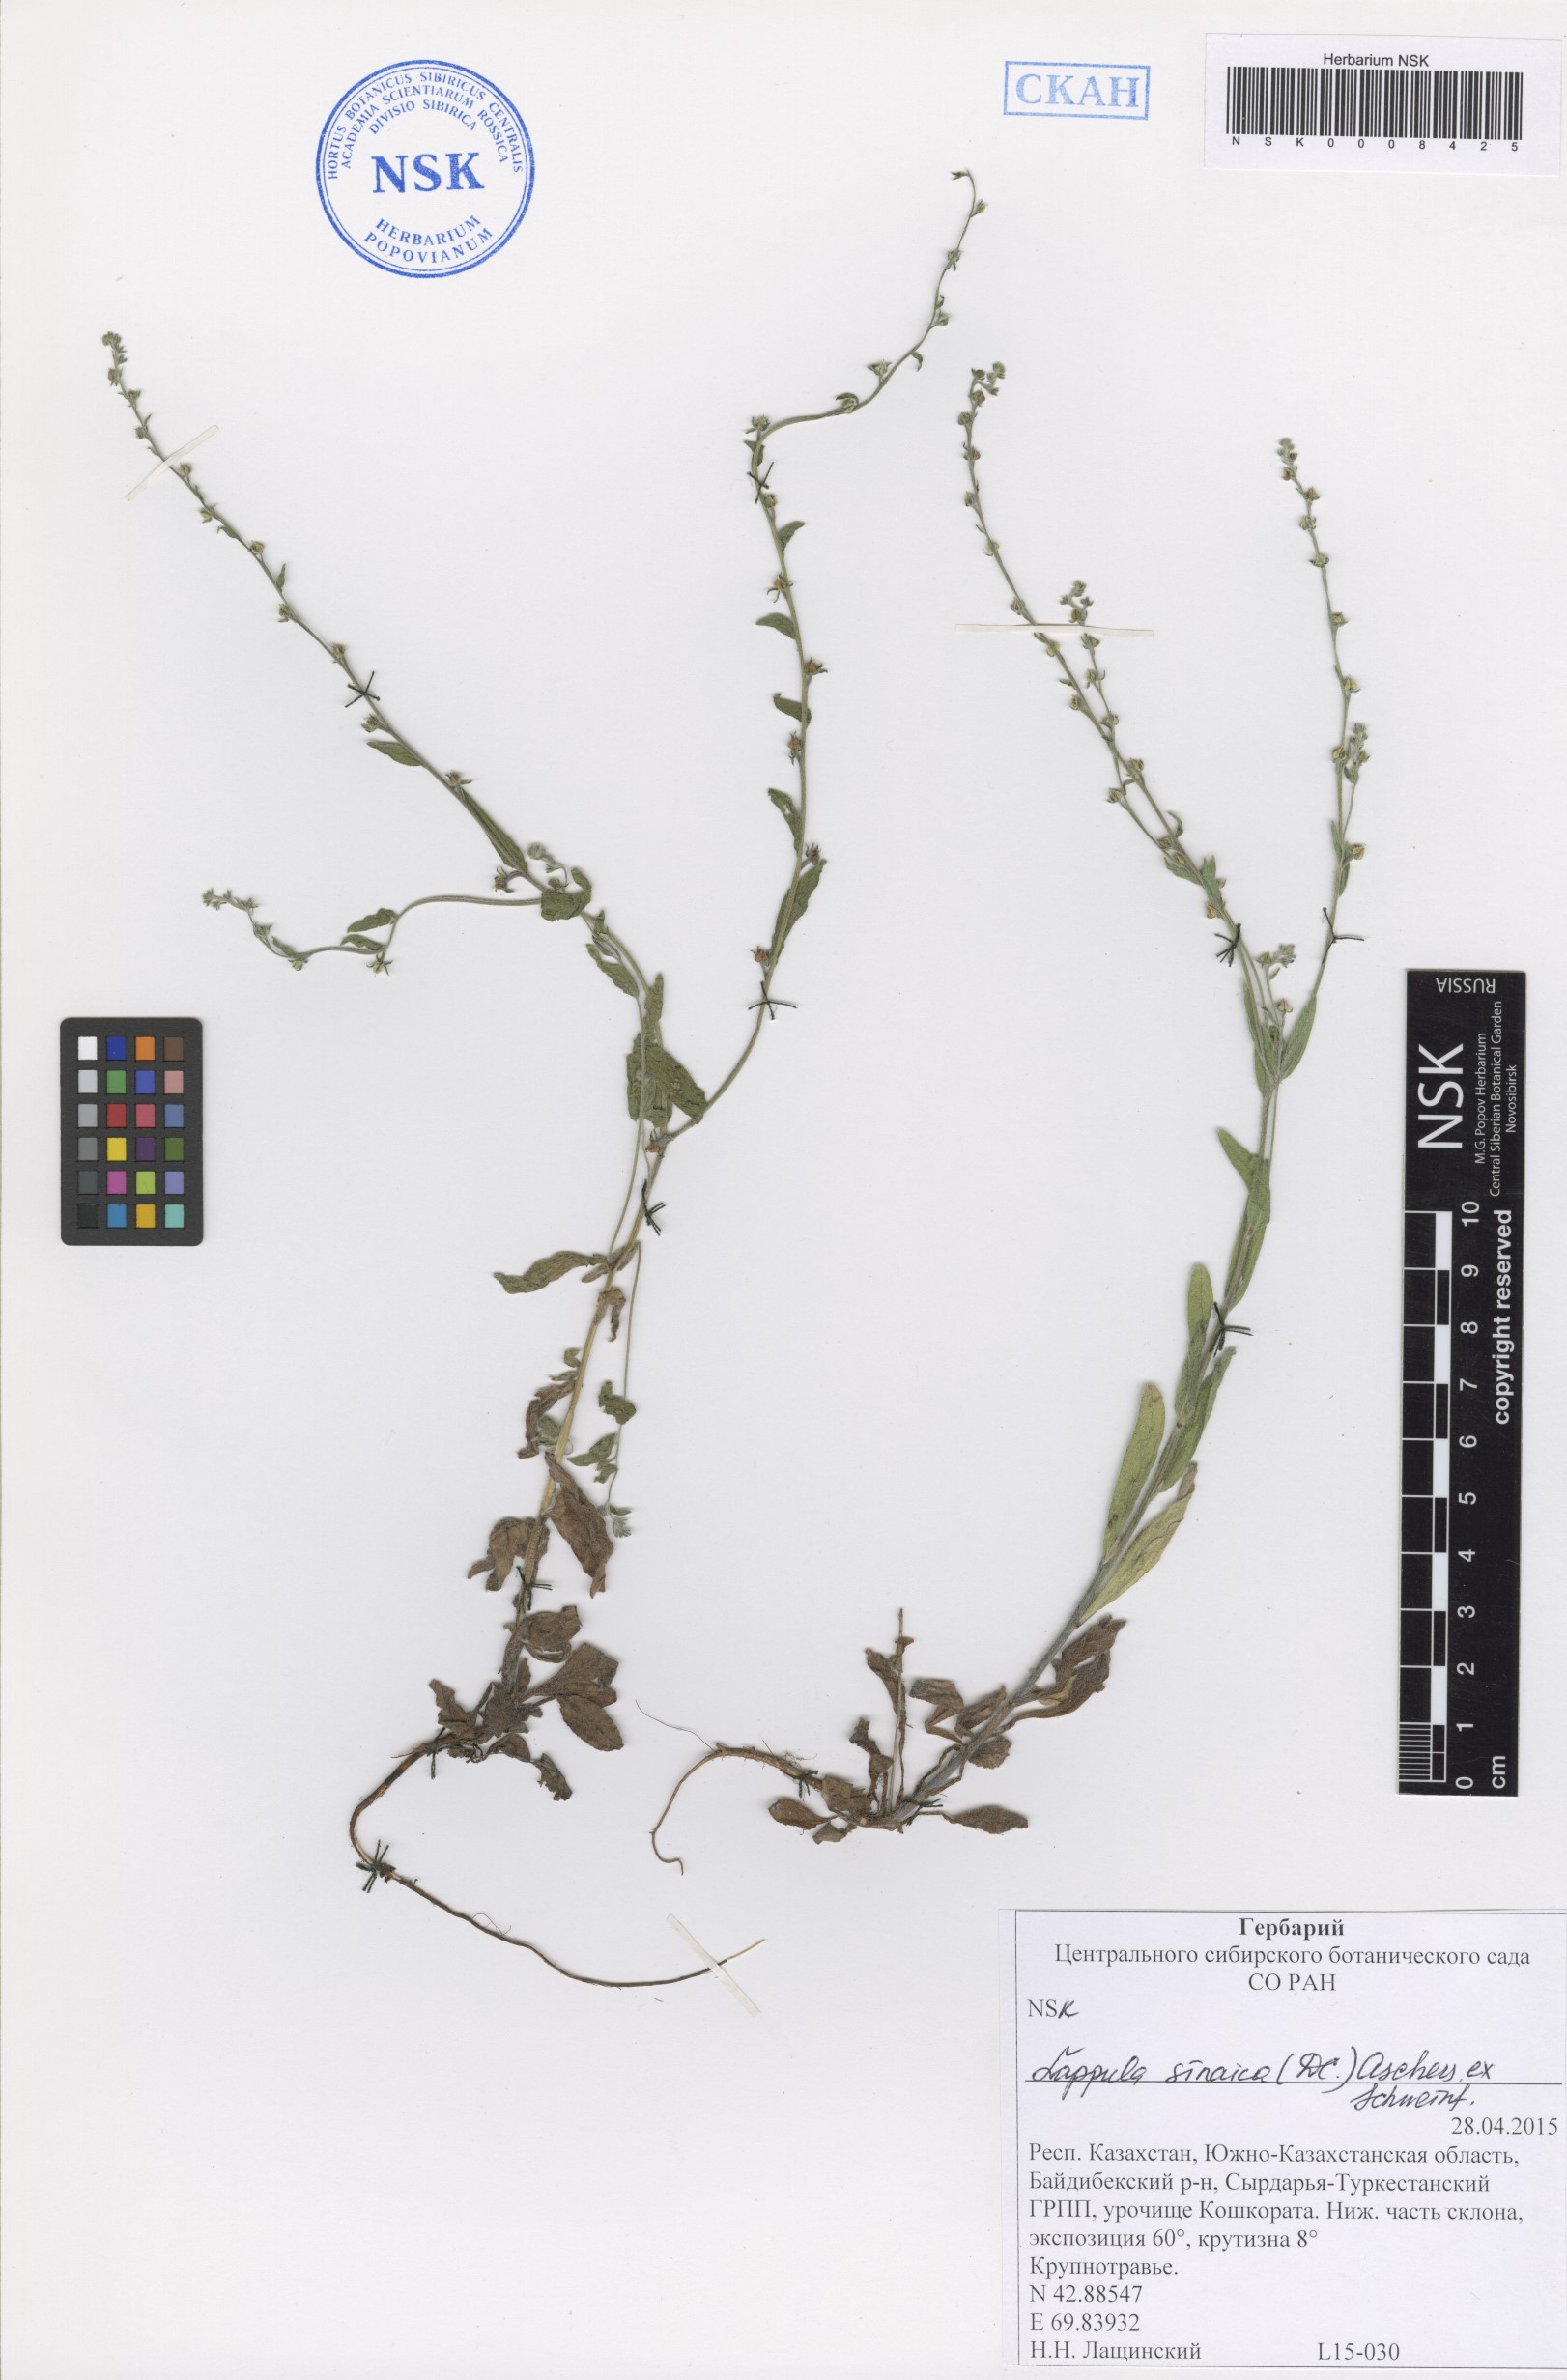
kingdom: Plantae
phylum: Tracheophyta
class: Magnoliopsida
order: Boraginales
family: Boraginaceae
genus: Pseudolappula
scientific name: Pseudolappula sinaica
